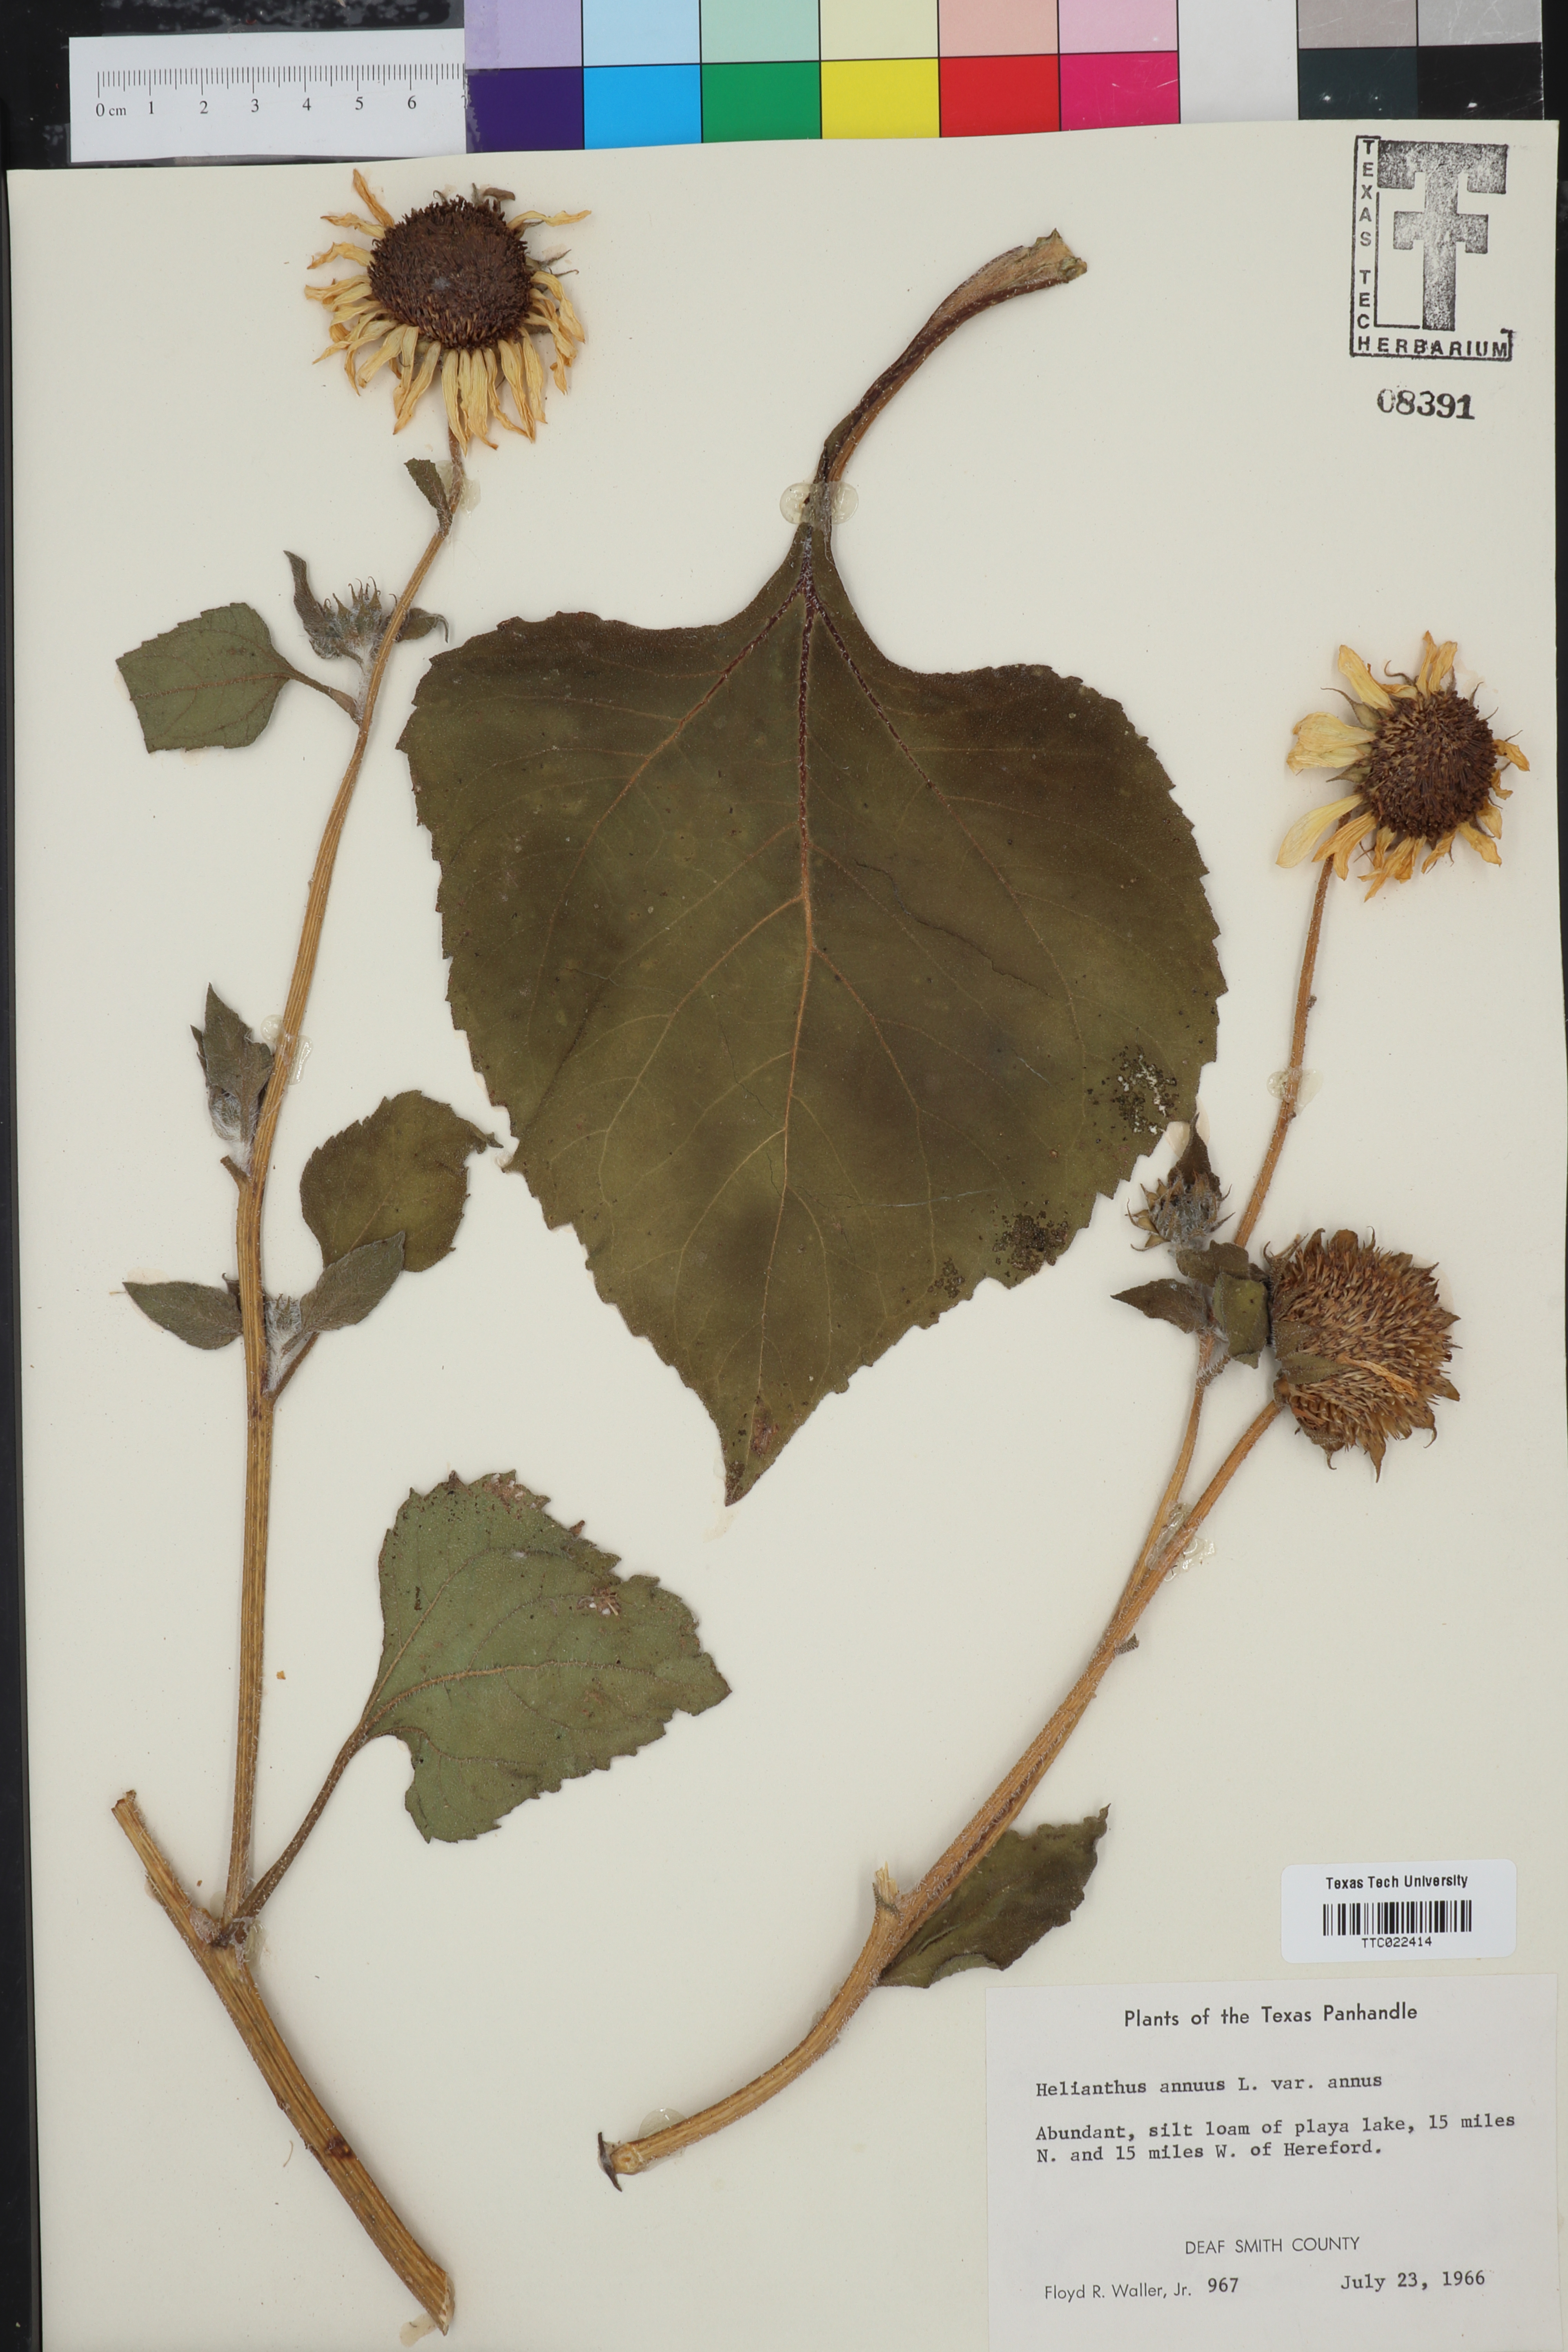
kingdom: Plantae
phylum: Tracheophyta
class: Magnoliopsida
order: Asterales
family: Asteraceae
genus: Helianthus
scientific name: Helianthus annuus
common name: Sunflower
